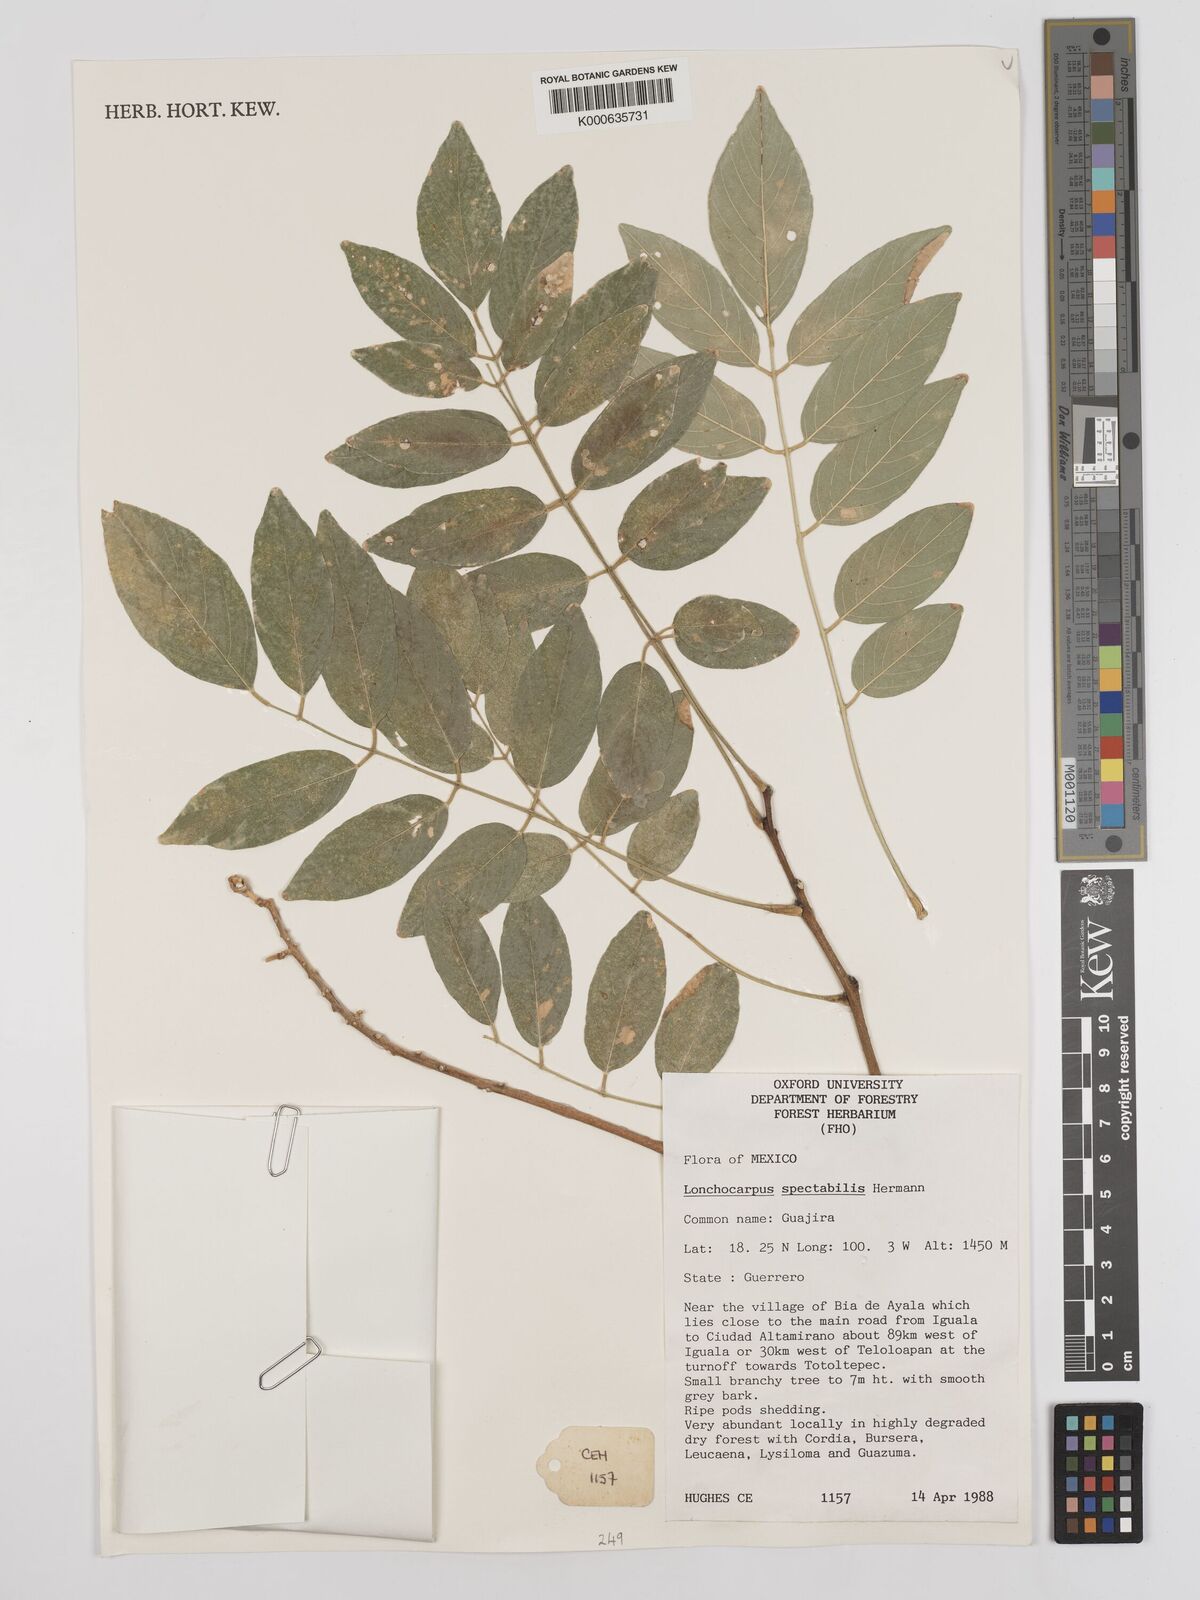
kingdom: Plantae
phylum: Tracheophyta
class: Magnoliopsida
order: Fabales
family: Fabaceae
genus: Lonchocarpus
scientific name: Lonchocarpus spectabilis
